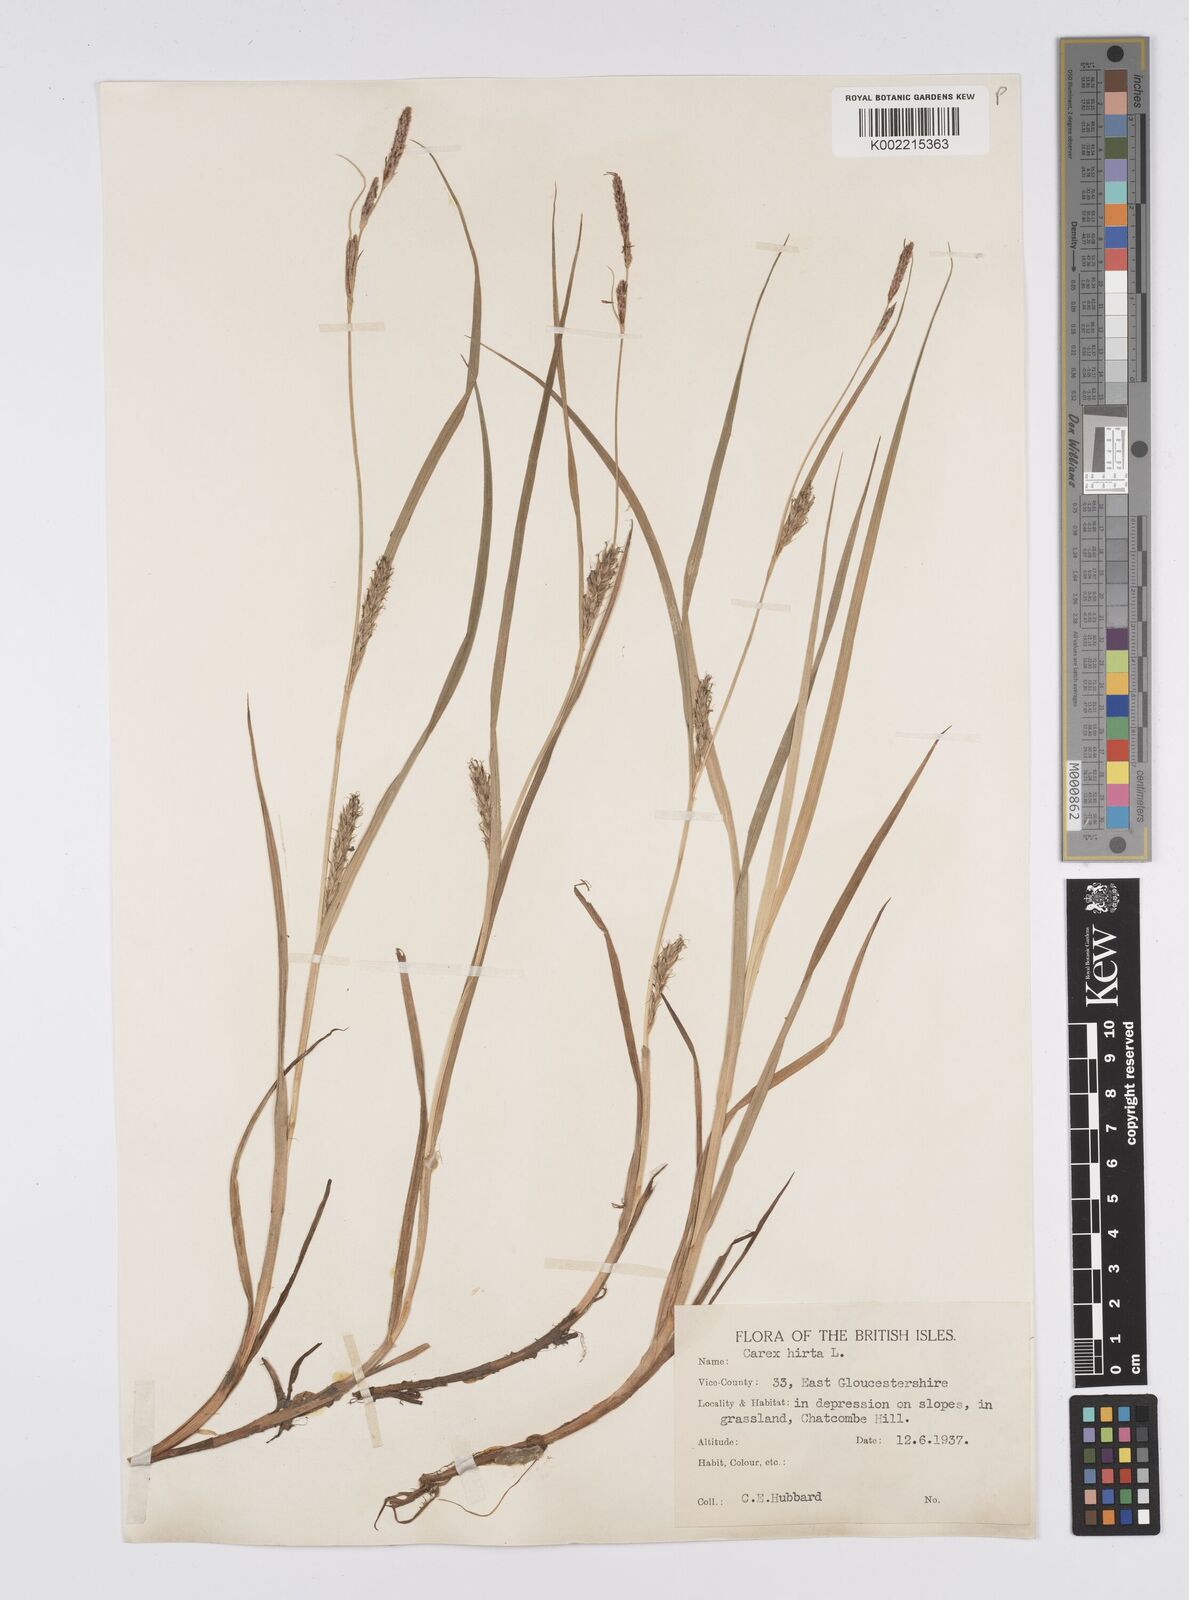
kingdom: Plantae
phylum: Tracheophyta
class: Liliopsida
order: Poales
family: Cyperaceae
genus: Carex
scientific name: Carex hirta
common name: Hairy sedge
